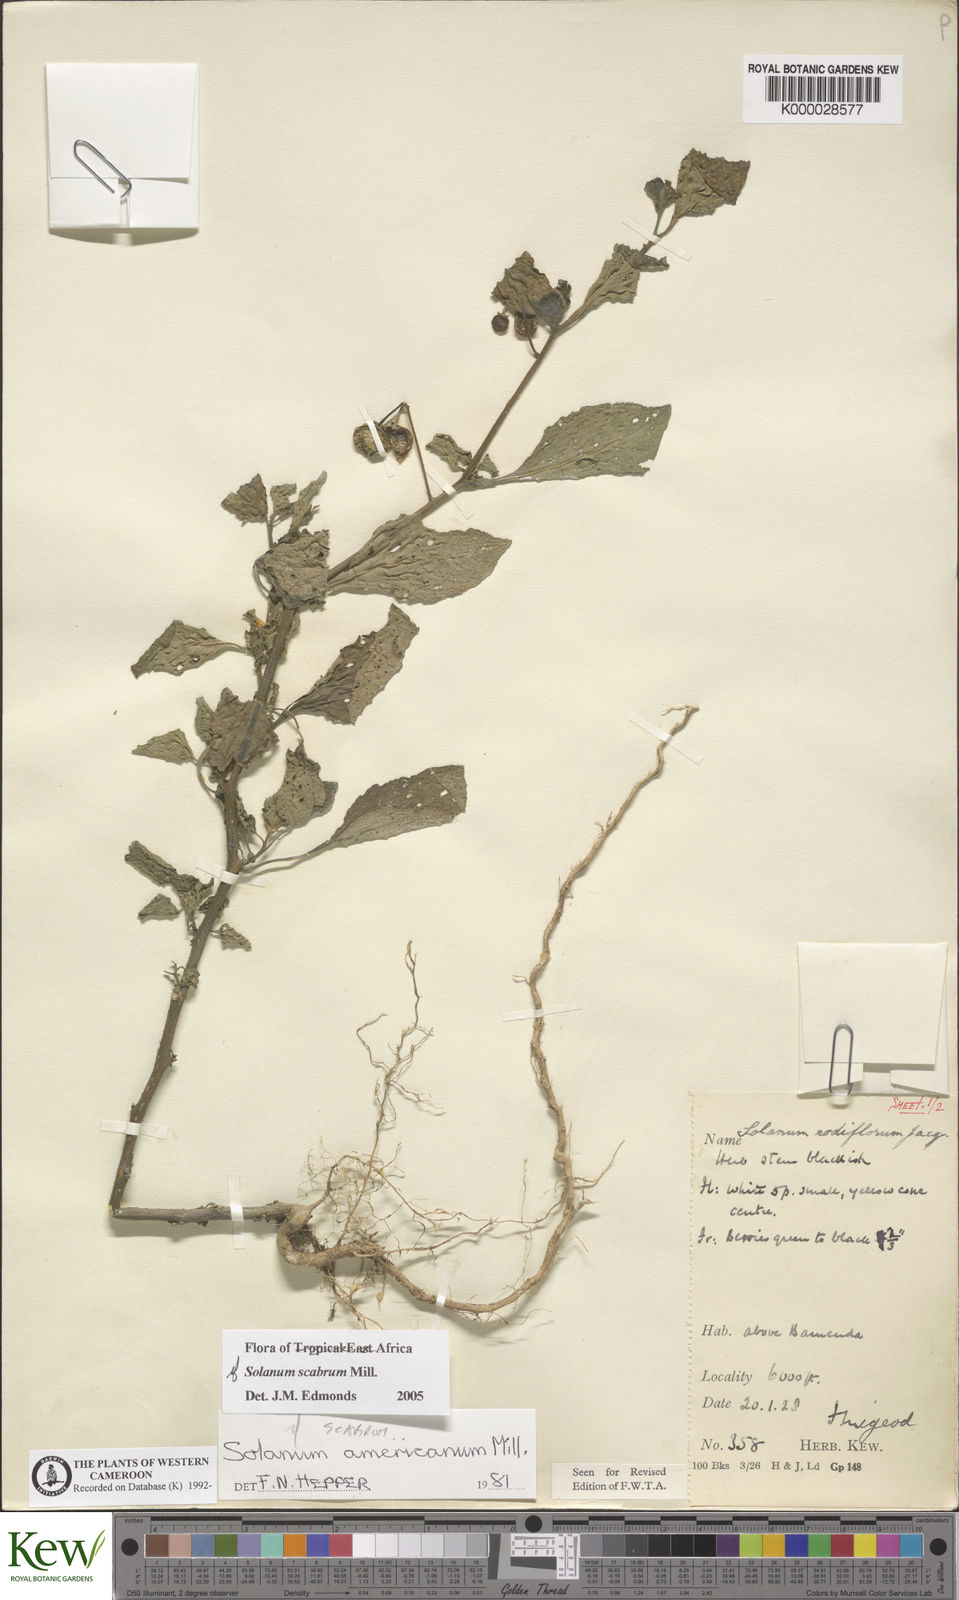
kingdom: Plantae
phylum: Tracheophyta
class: Magnoliopsida
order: Solanales
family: Solanaceae
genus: Solanum
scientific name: Solanum americanum
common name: American black nightshade
